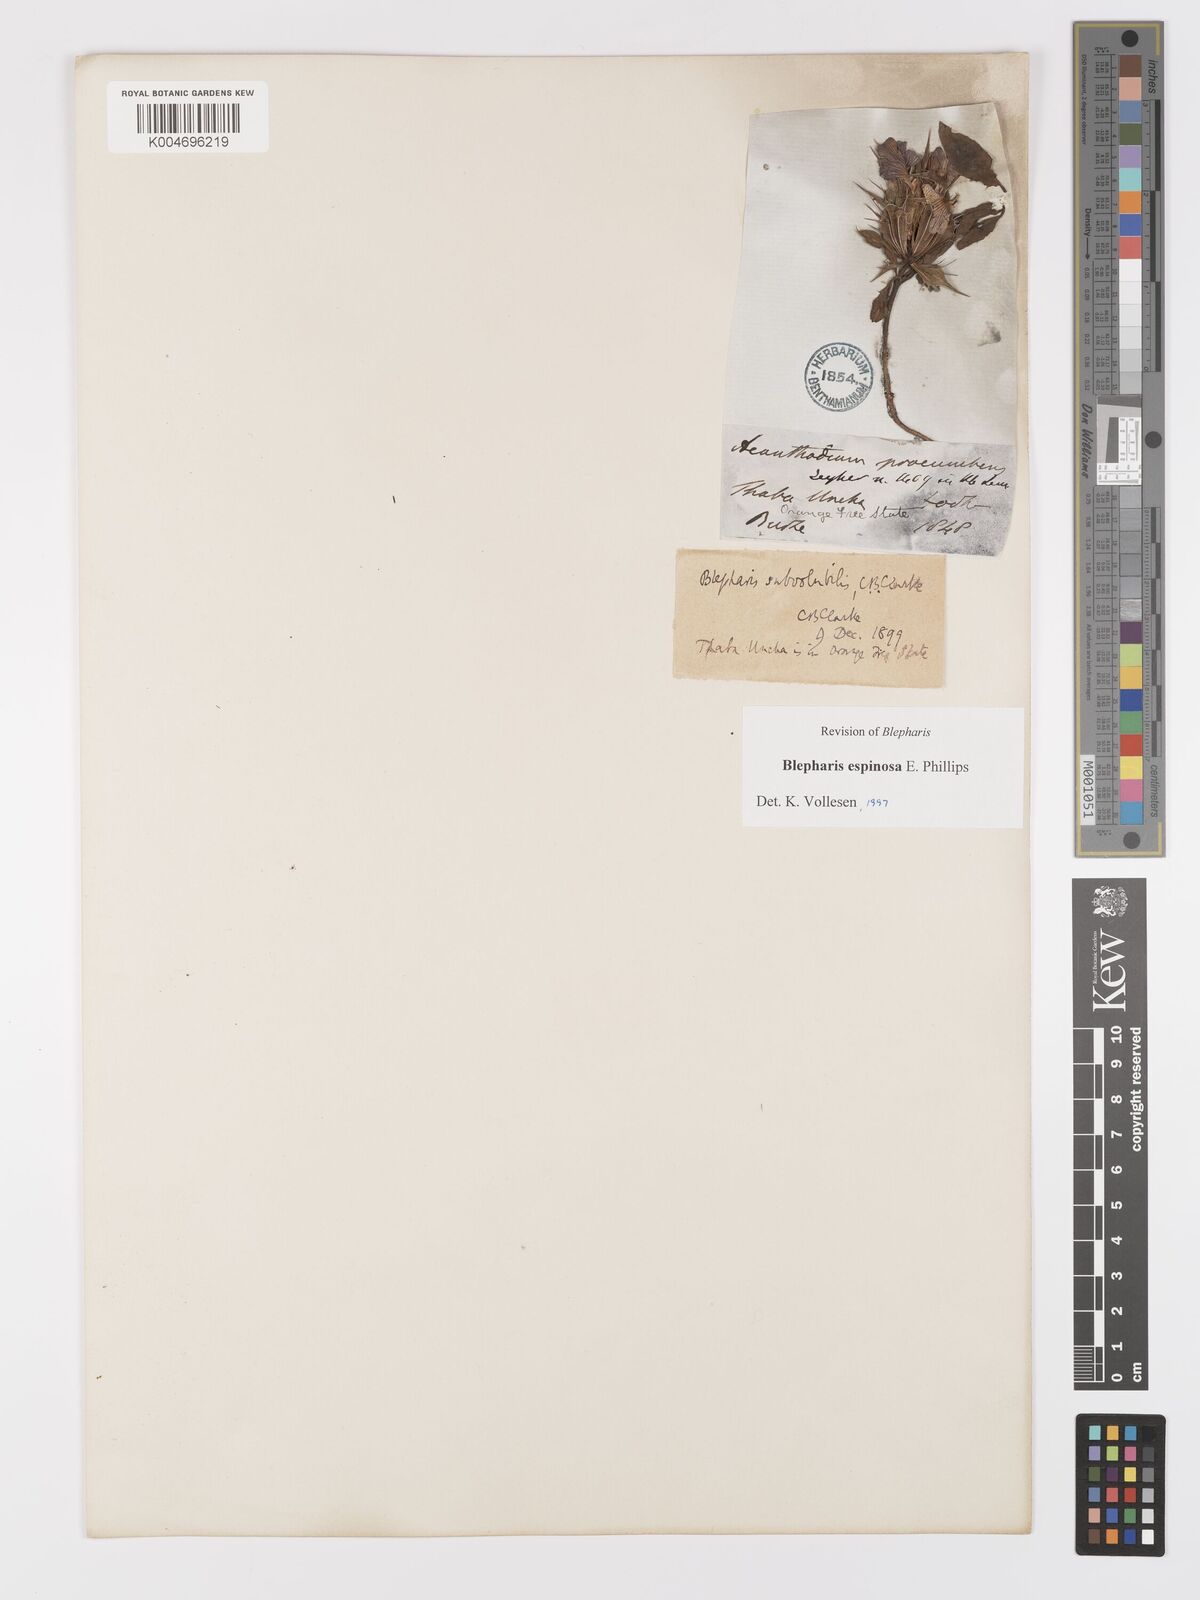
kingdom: Plantae
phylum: Tracheophyta
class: Magnoliopsida
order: Lamiales
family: Acanthaceae
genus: Blepharis
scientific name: Blepharis espinosa
